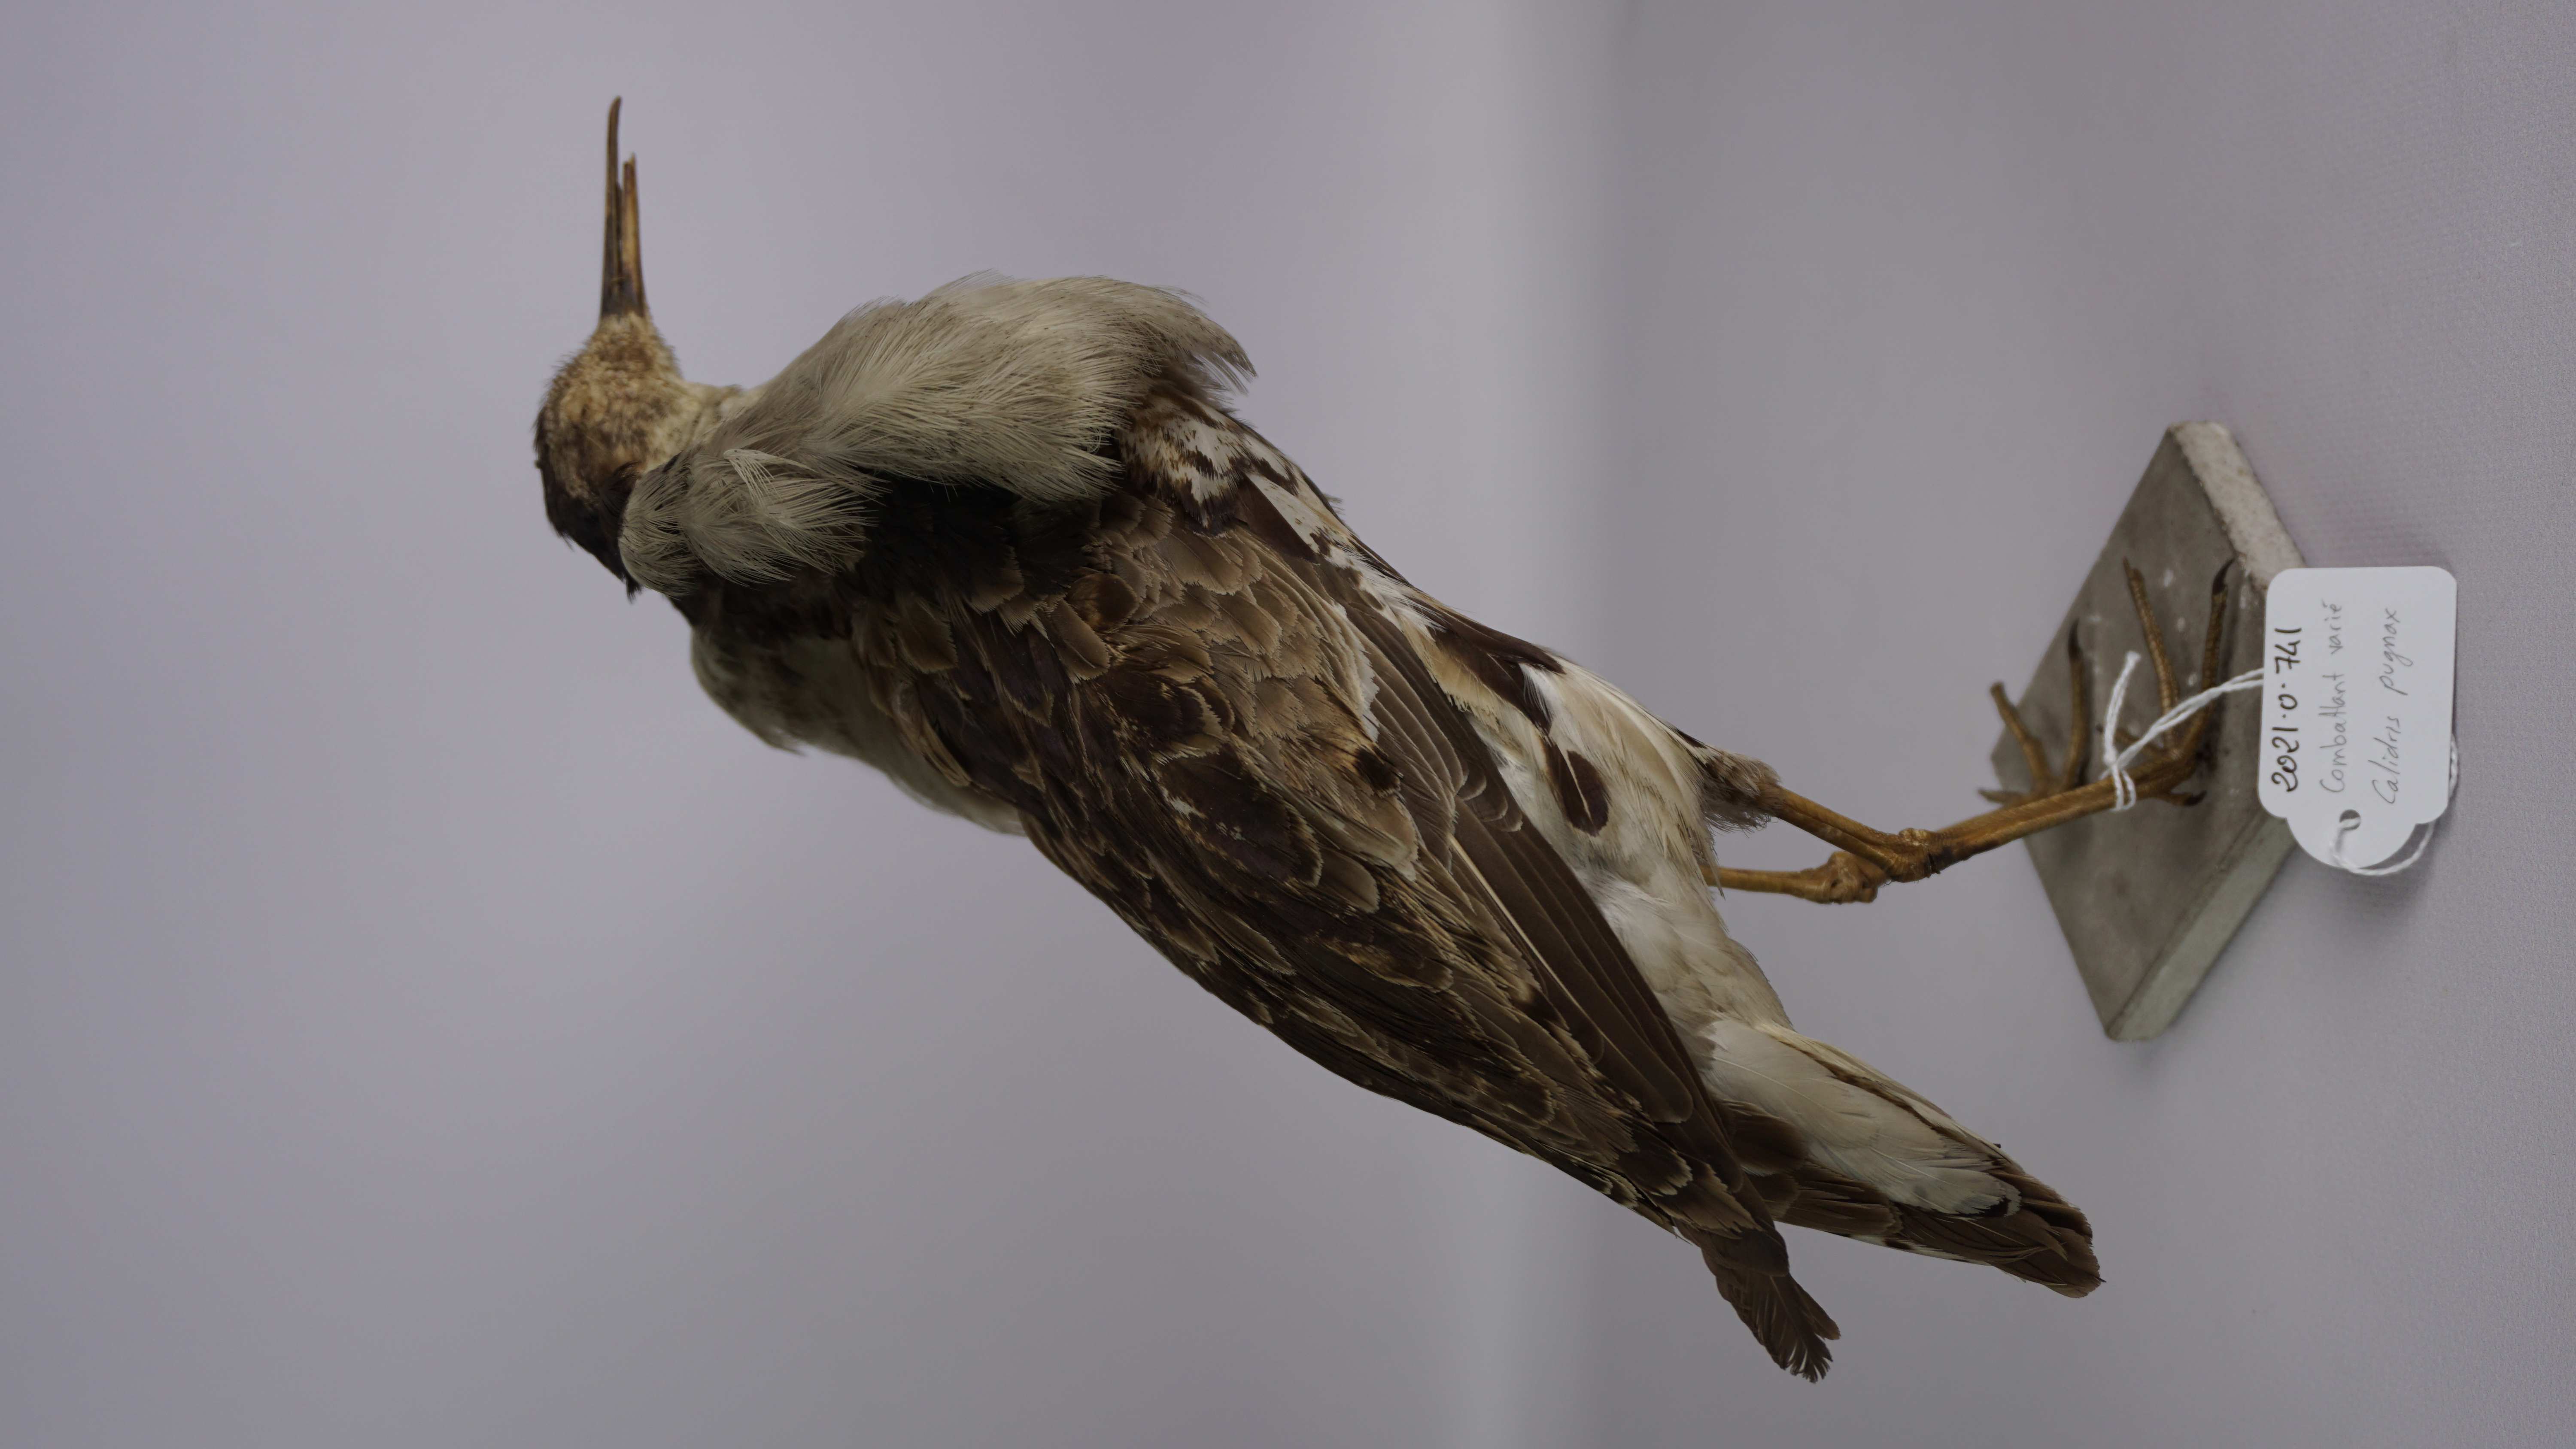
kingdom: Animalia
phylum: Chordata
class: Aves
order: Charadriiformes
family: Scolopacidae
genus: Calidris
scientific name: Calidris pugnax
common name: Ruff
